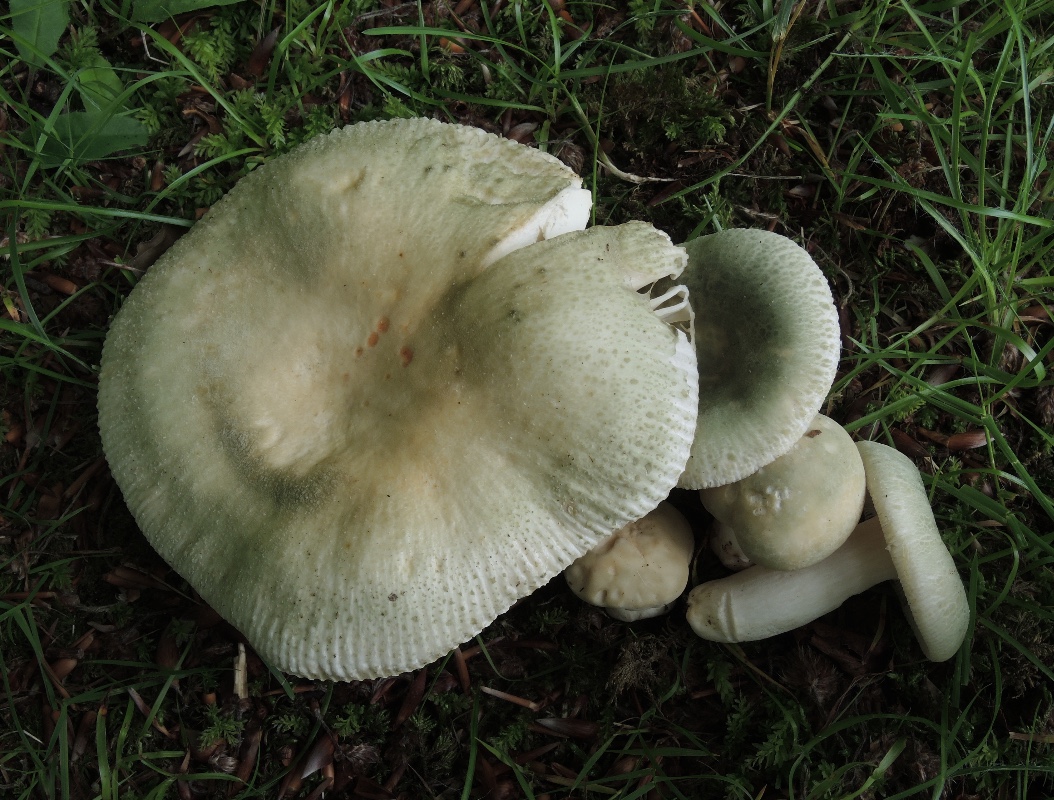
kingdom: Fungi
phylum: Basidiomycota
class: Agaricomycetes
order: Russulales
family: Russulaceae
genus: Russula
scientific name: Russula virescens
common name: spanskgrøn skørhat
